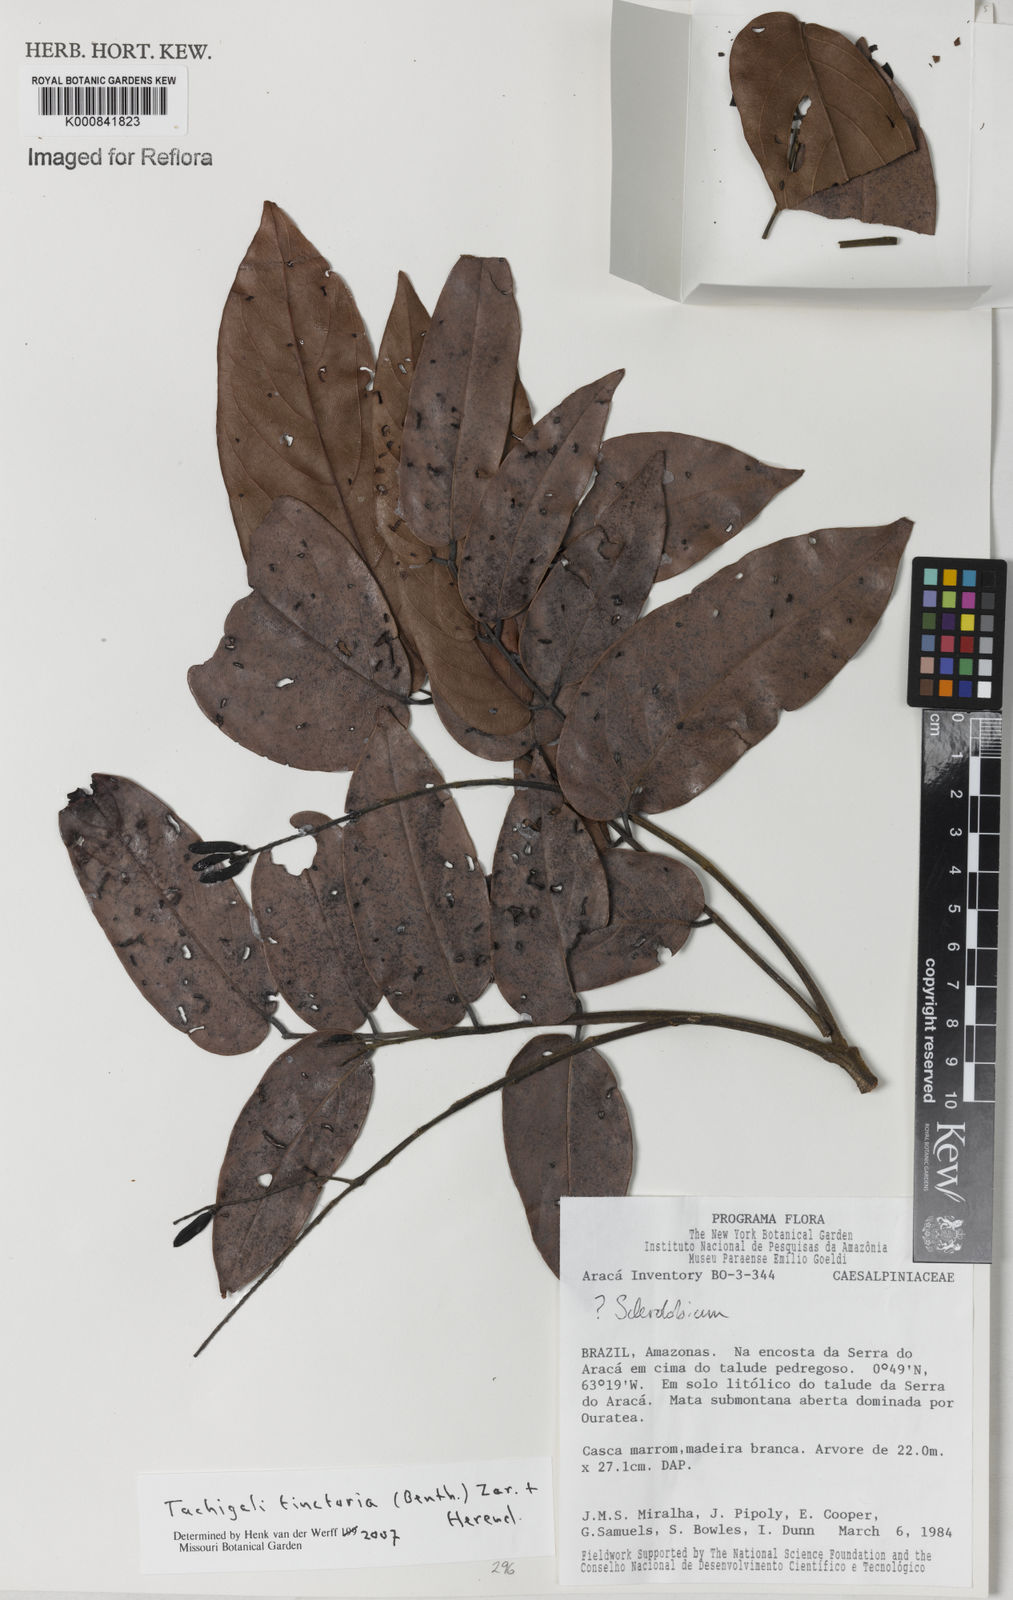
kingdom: Plantae
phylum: Tracheophyta
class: Magnoliopsida
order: Fabales
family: Fabaceae
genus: Tachigali
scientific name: Tachigali tinctoria
